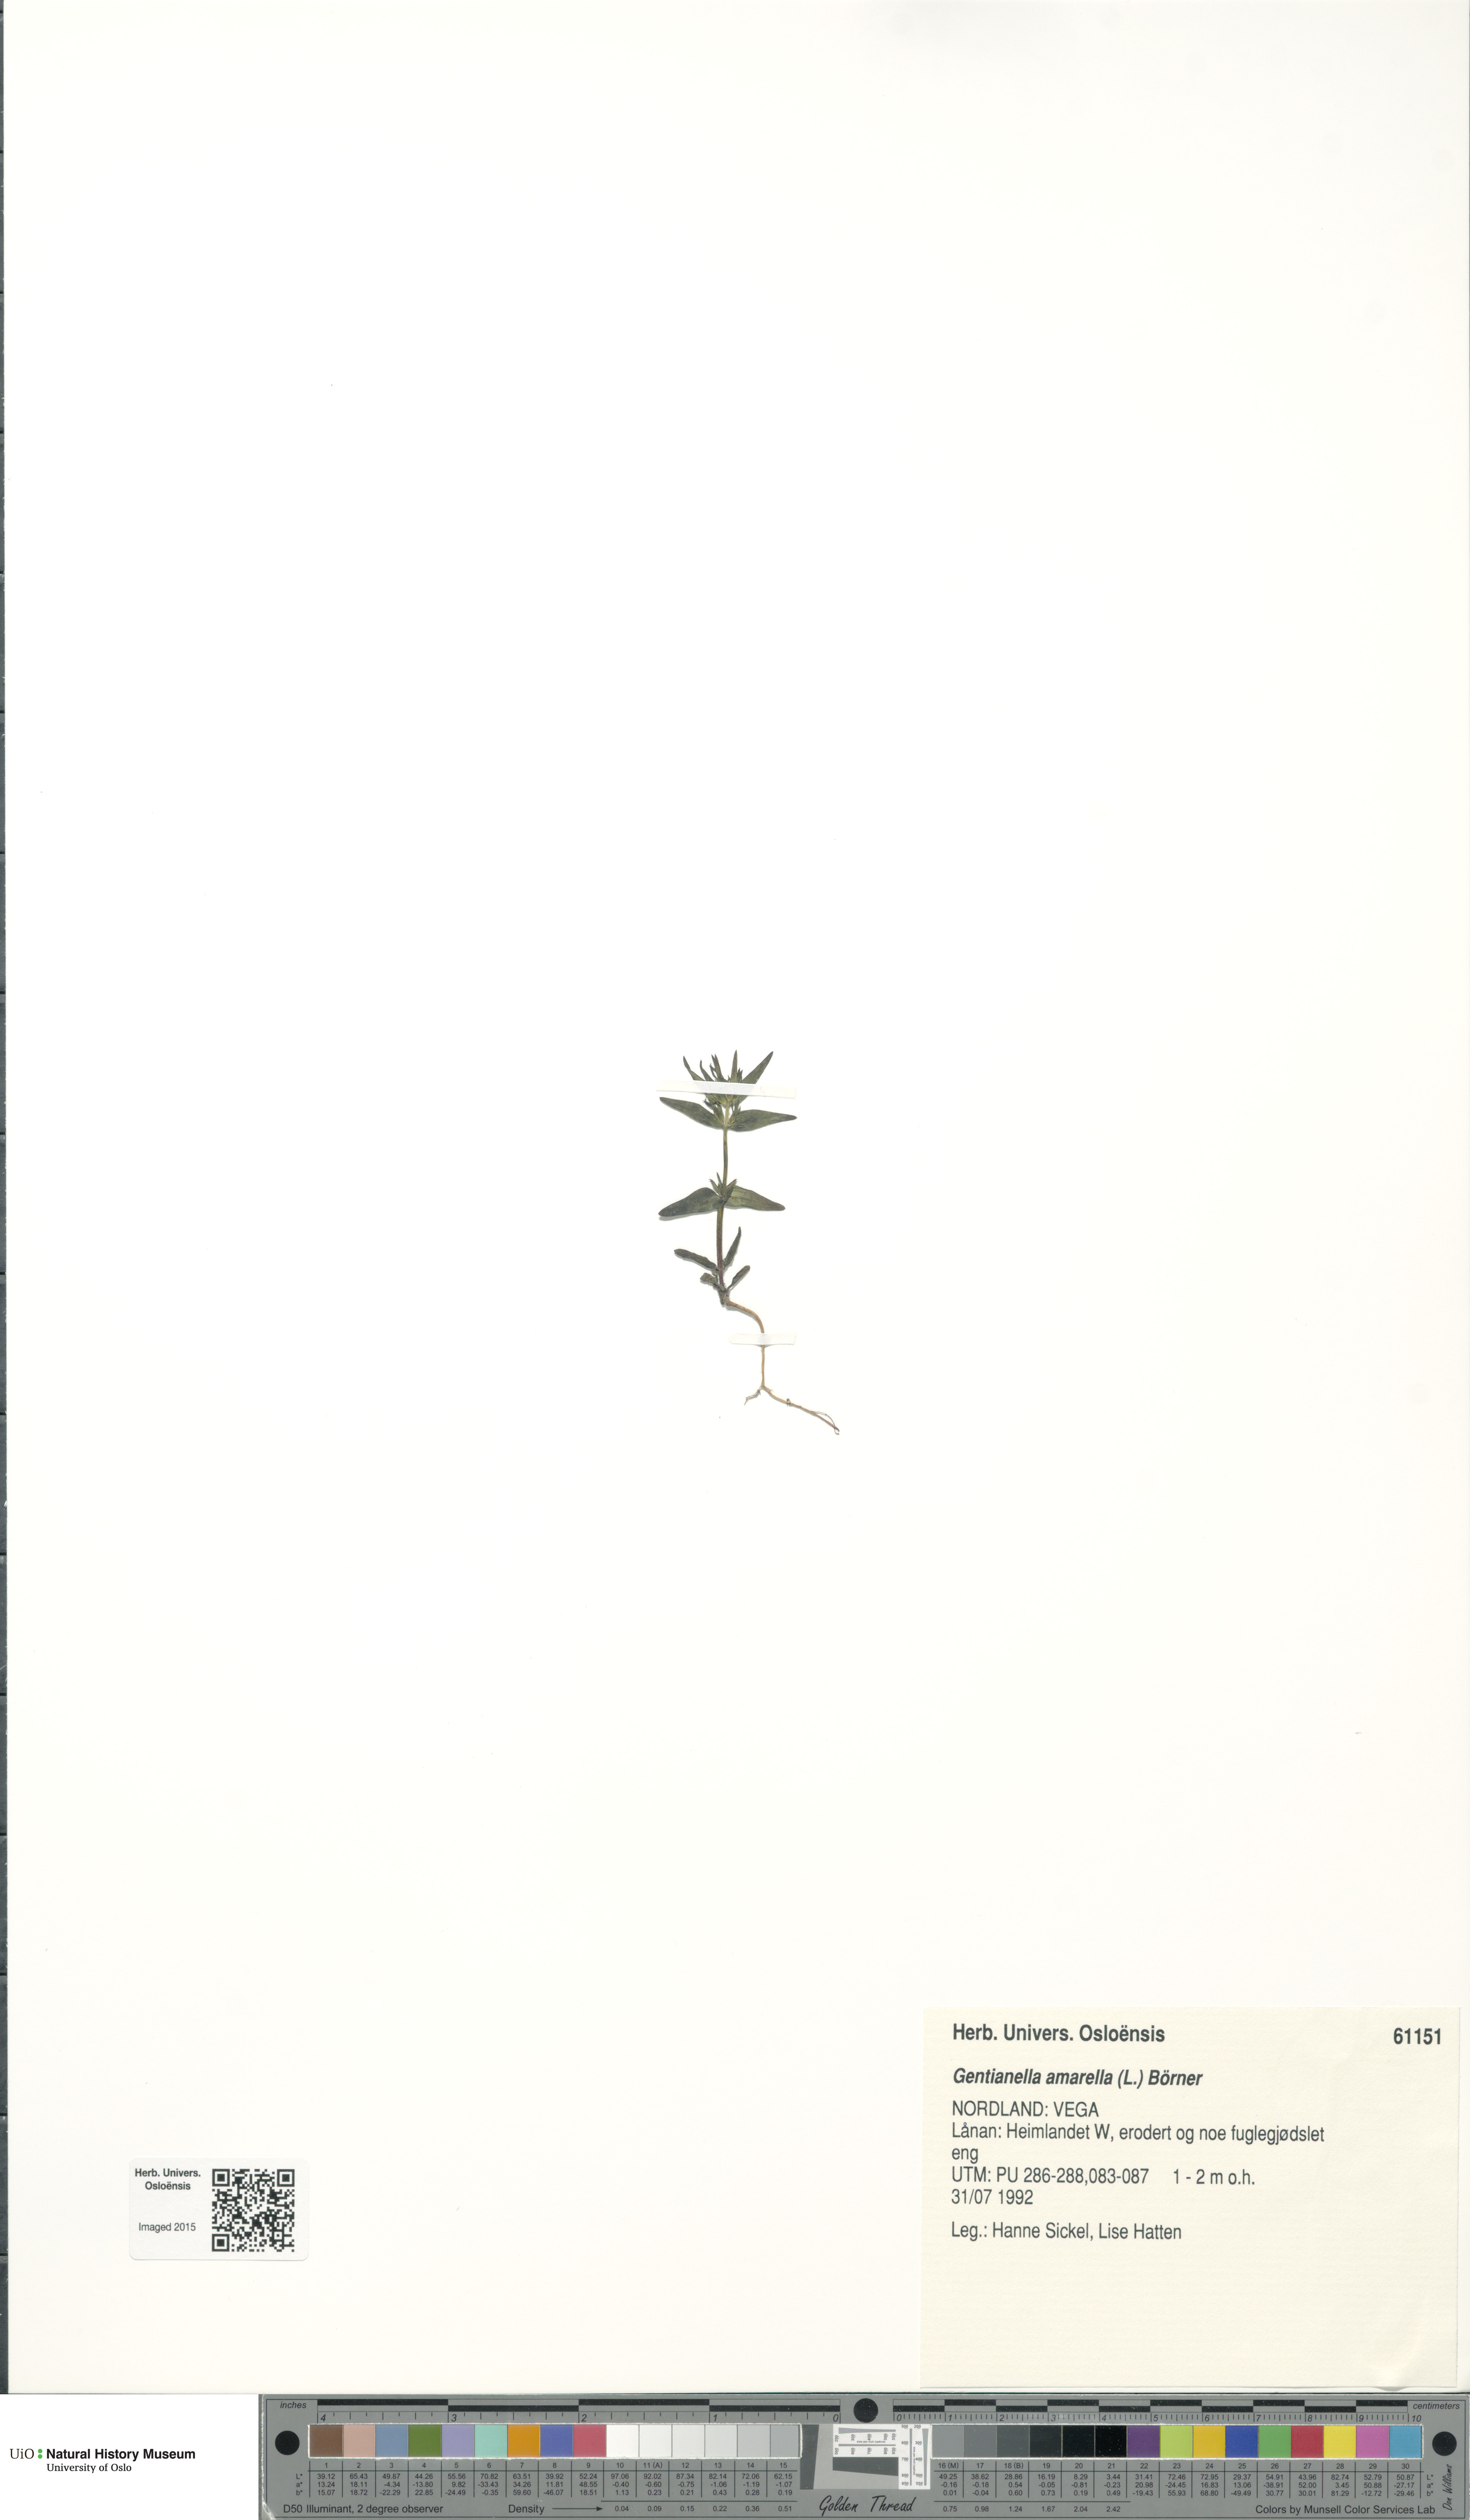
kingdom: Plantae
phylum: Tracheophyta
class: Magnoliopsida
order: Gentianales
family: Gentianaceae
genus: Gentianella
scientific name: Gentianella amarella
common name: Autumn gentian
